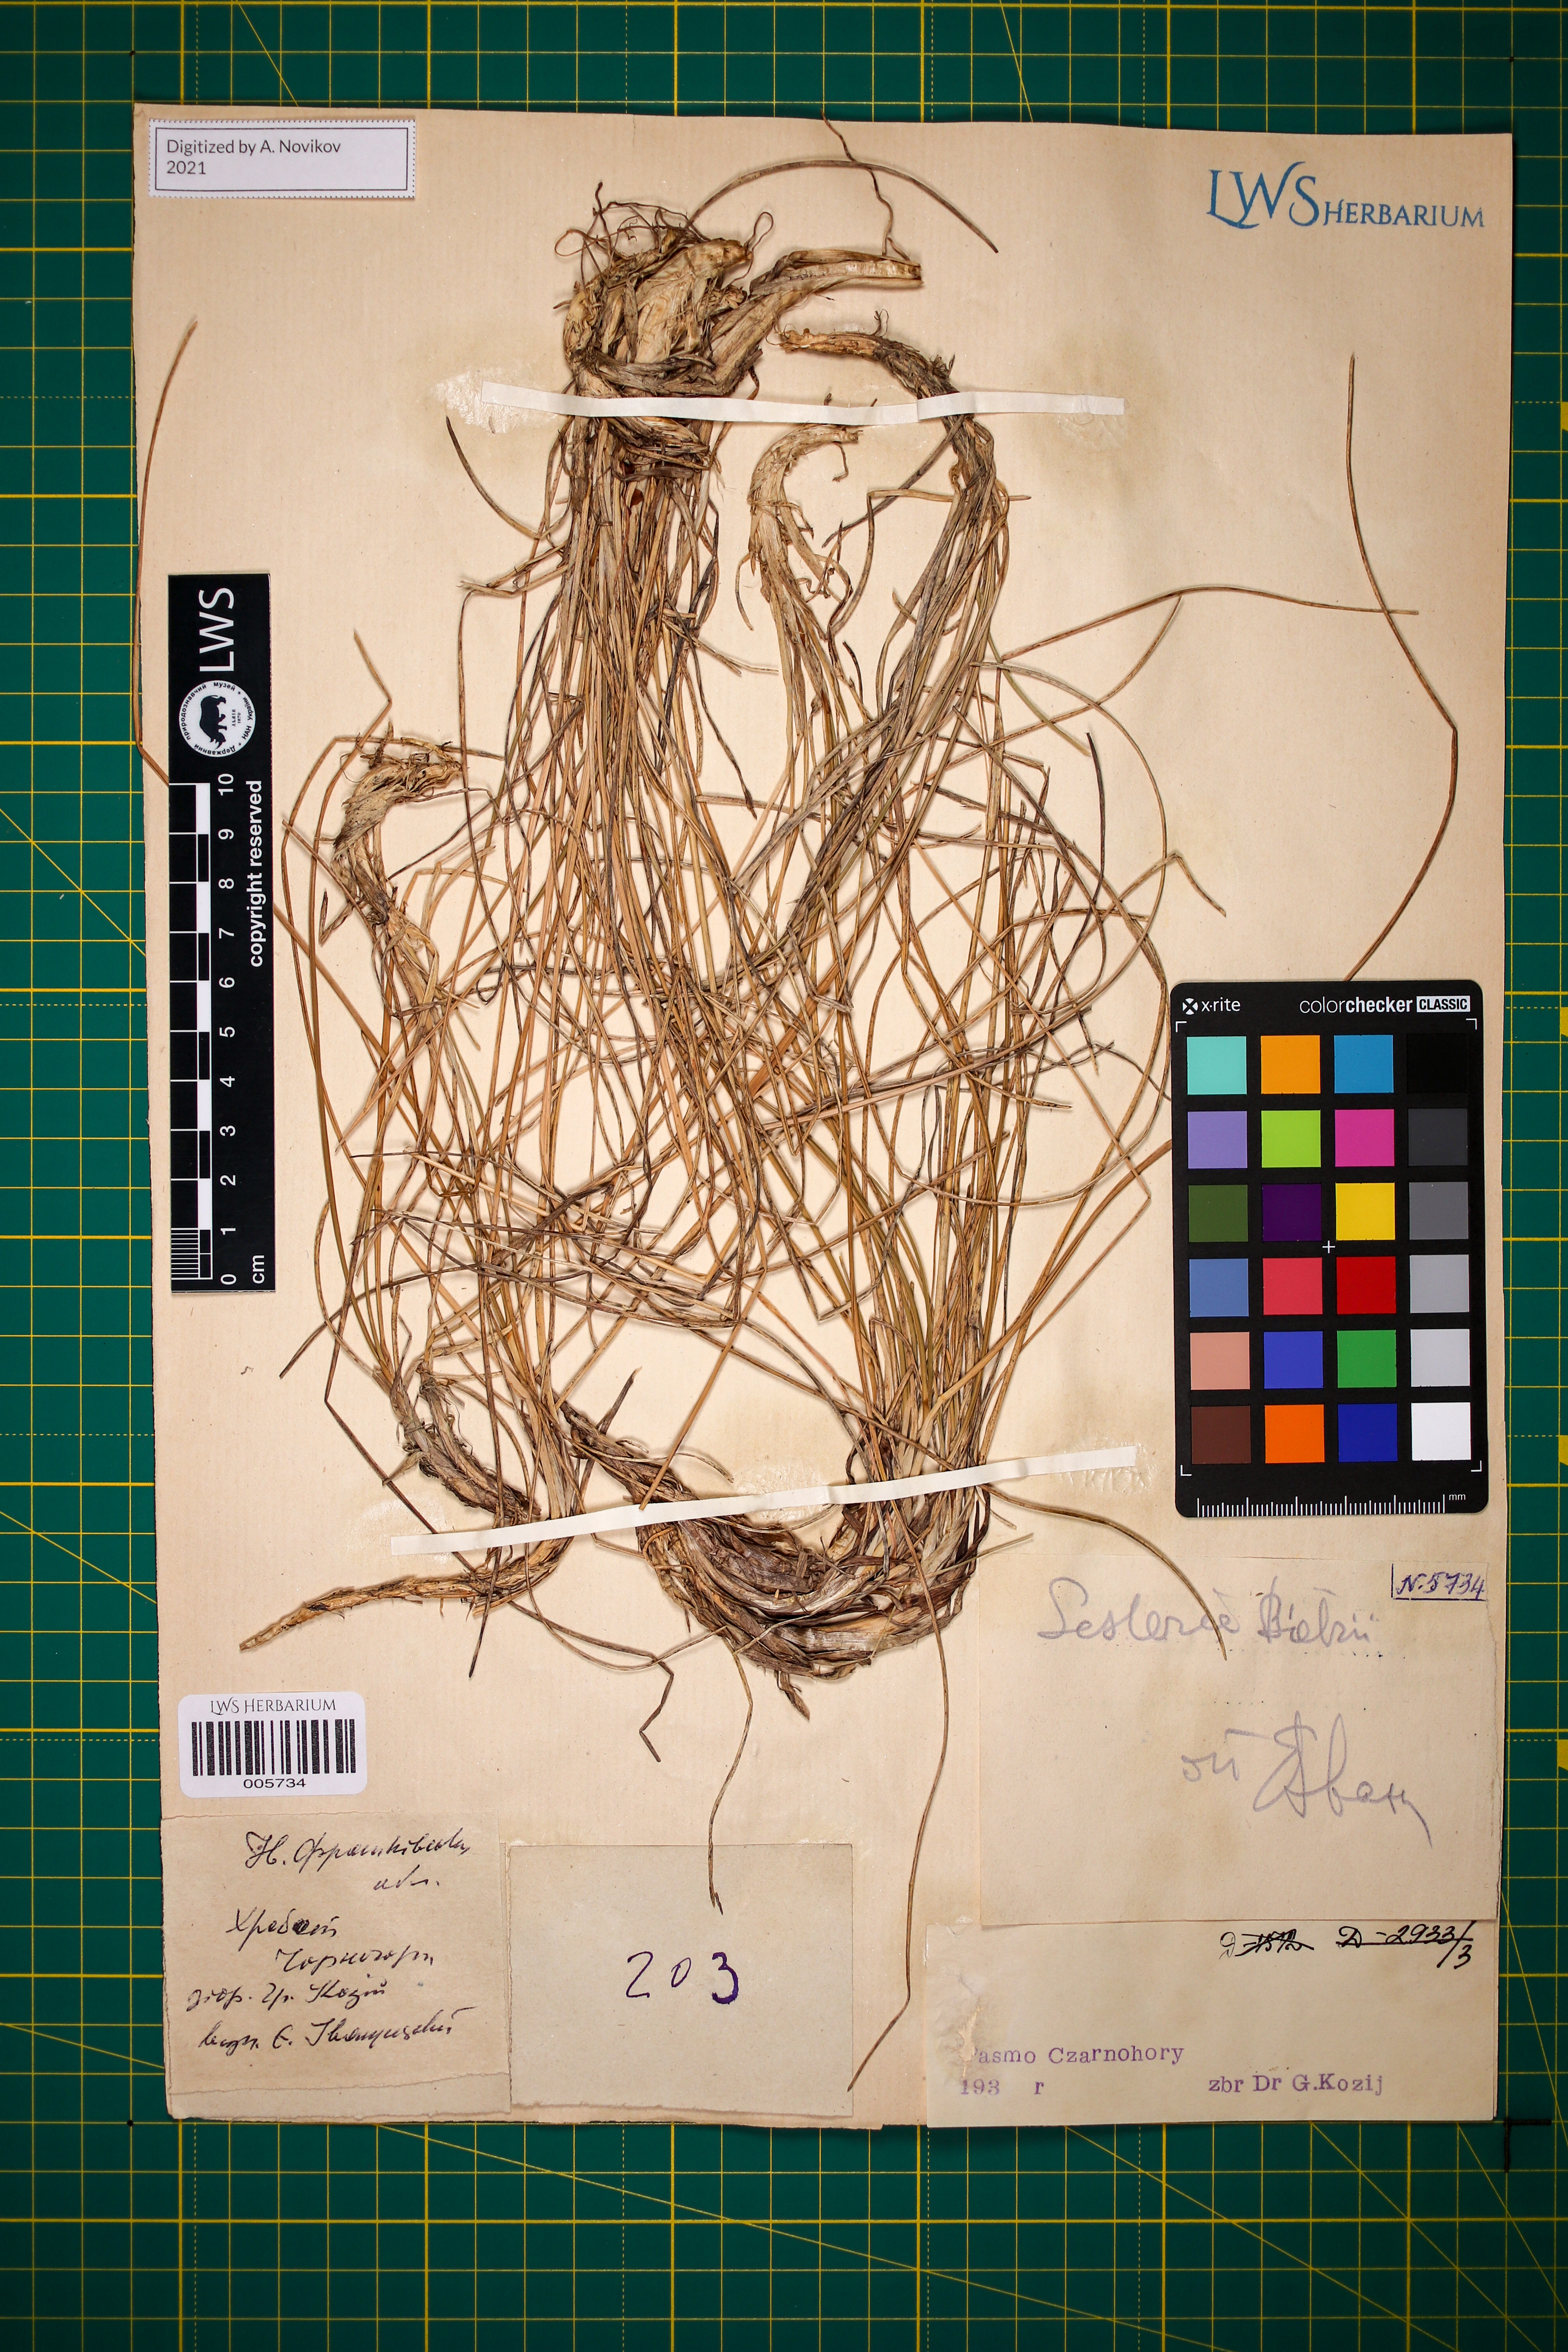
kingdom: Plantae
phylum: Tracheophyta
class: Liliopsida
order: Poales
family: Poaceae
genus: Sesleria
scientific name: Sesleria bielzii
